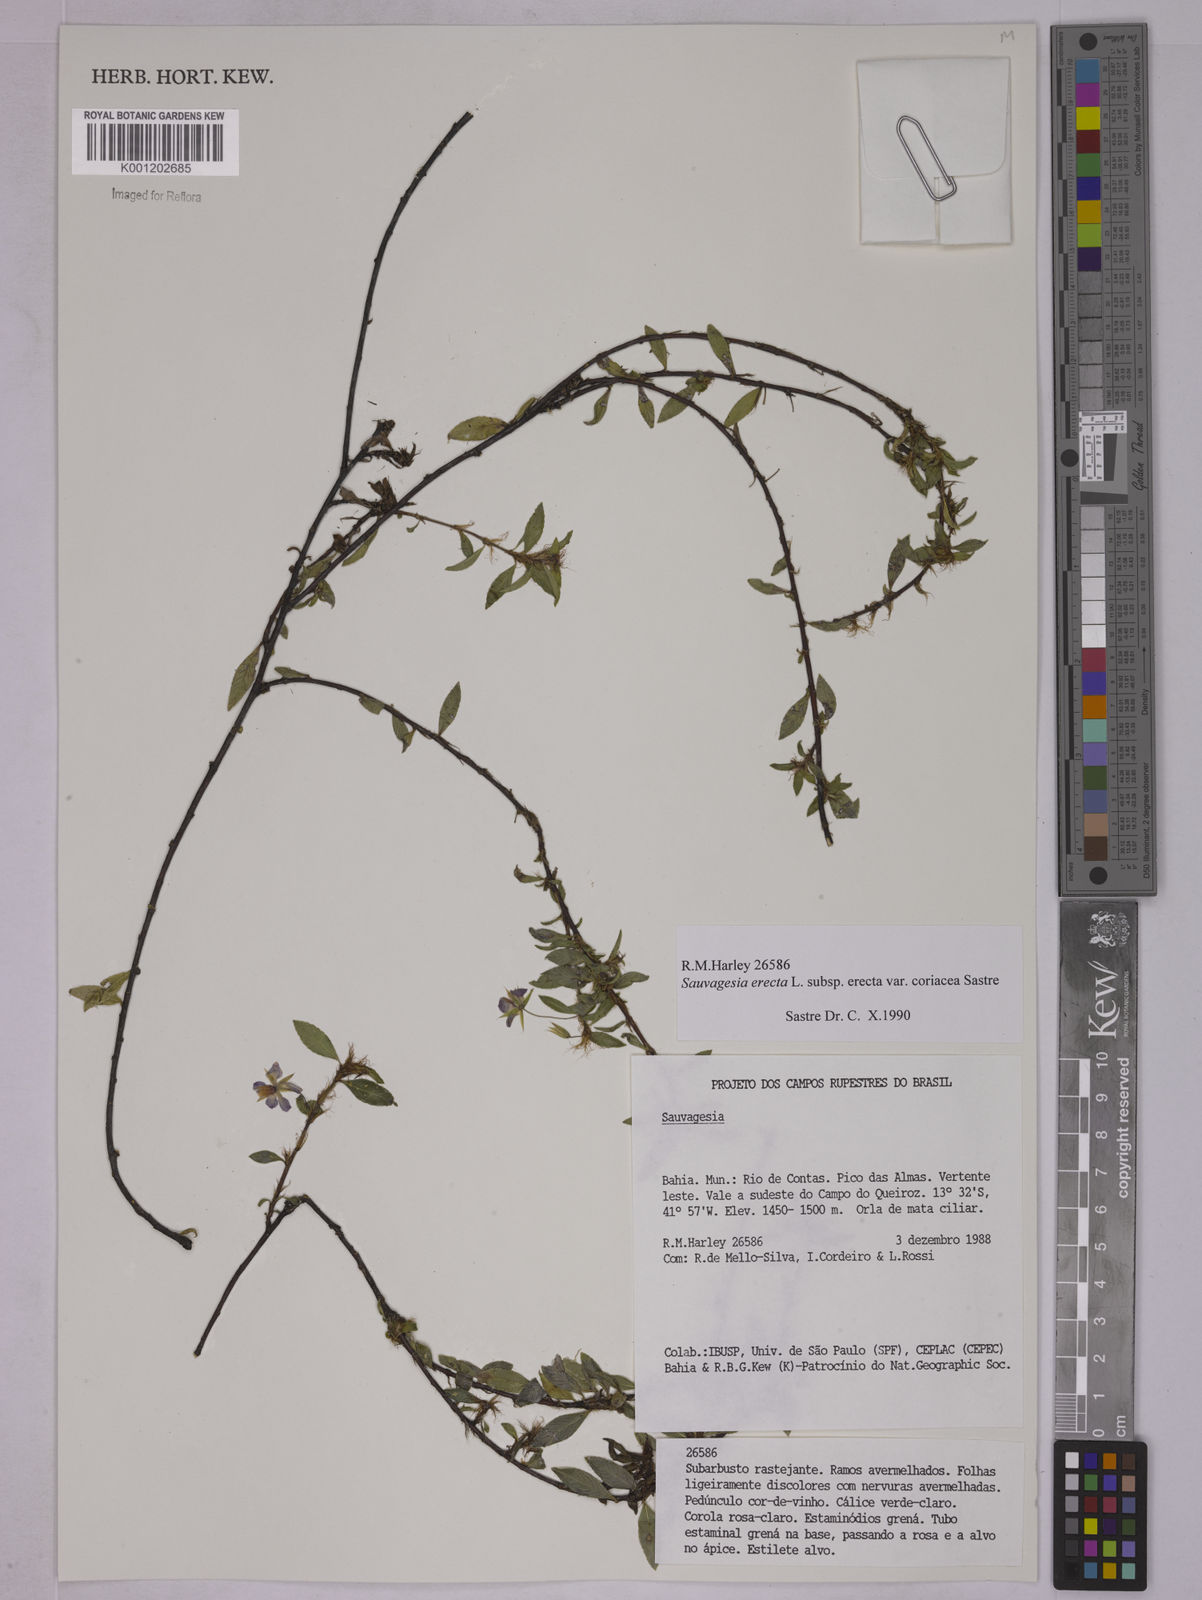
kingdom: Plantae
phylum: Tracheophyta
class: Magnoliopsida
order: Malpighiales
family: Ochnaceae
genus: Sauvagesia
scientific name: Sauvagesia erecta
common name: Creole tea
